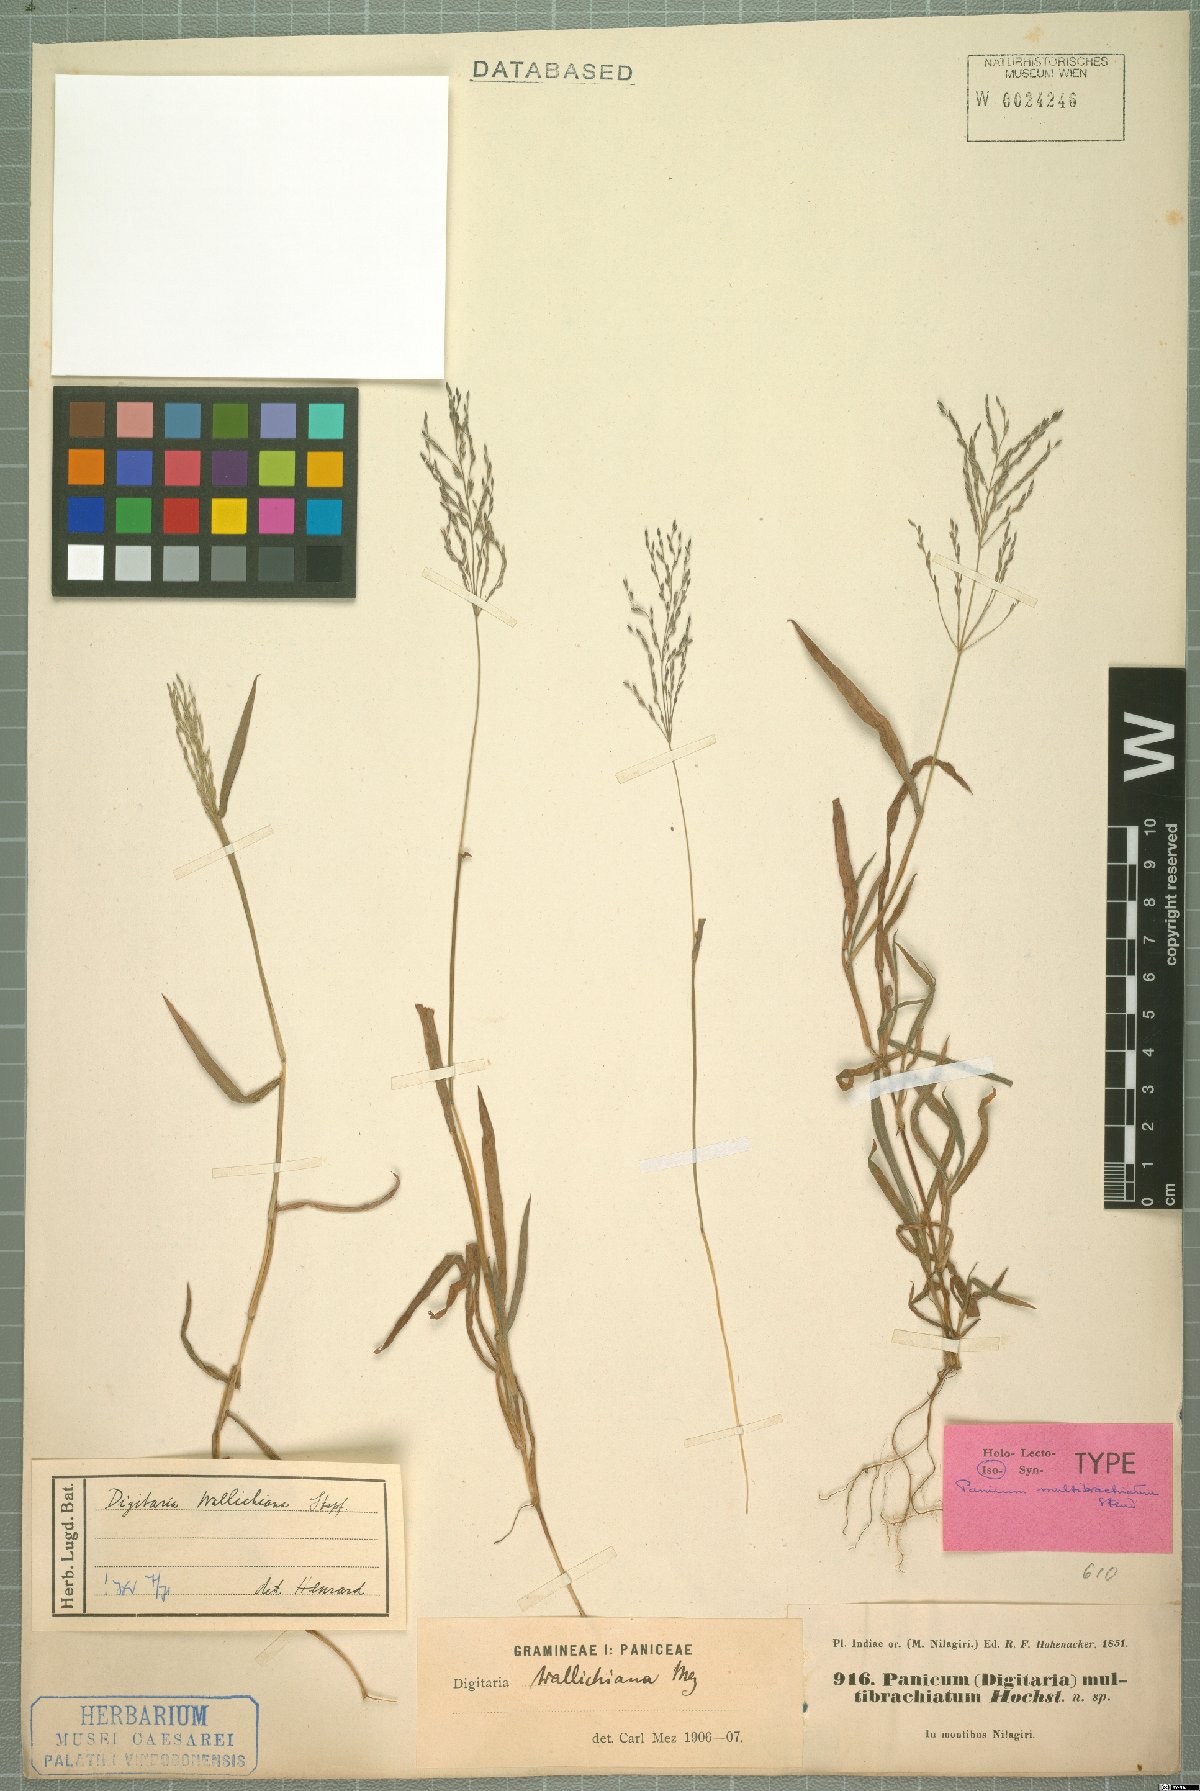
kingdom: Plantae
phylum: Tracheophyta
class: Liliopsida
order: Poales
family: Poaceae
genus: Digitaria
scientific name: Digitaria wallichiana
